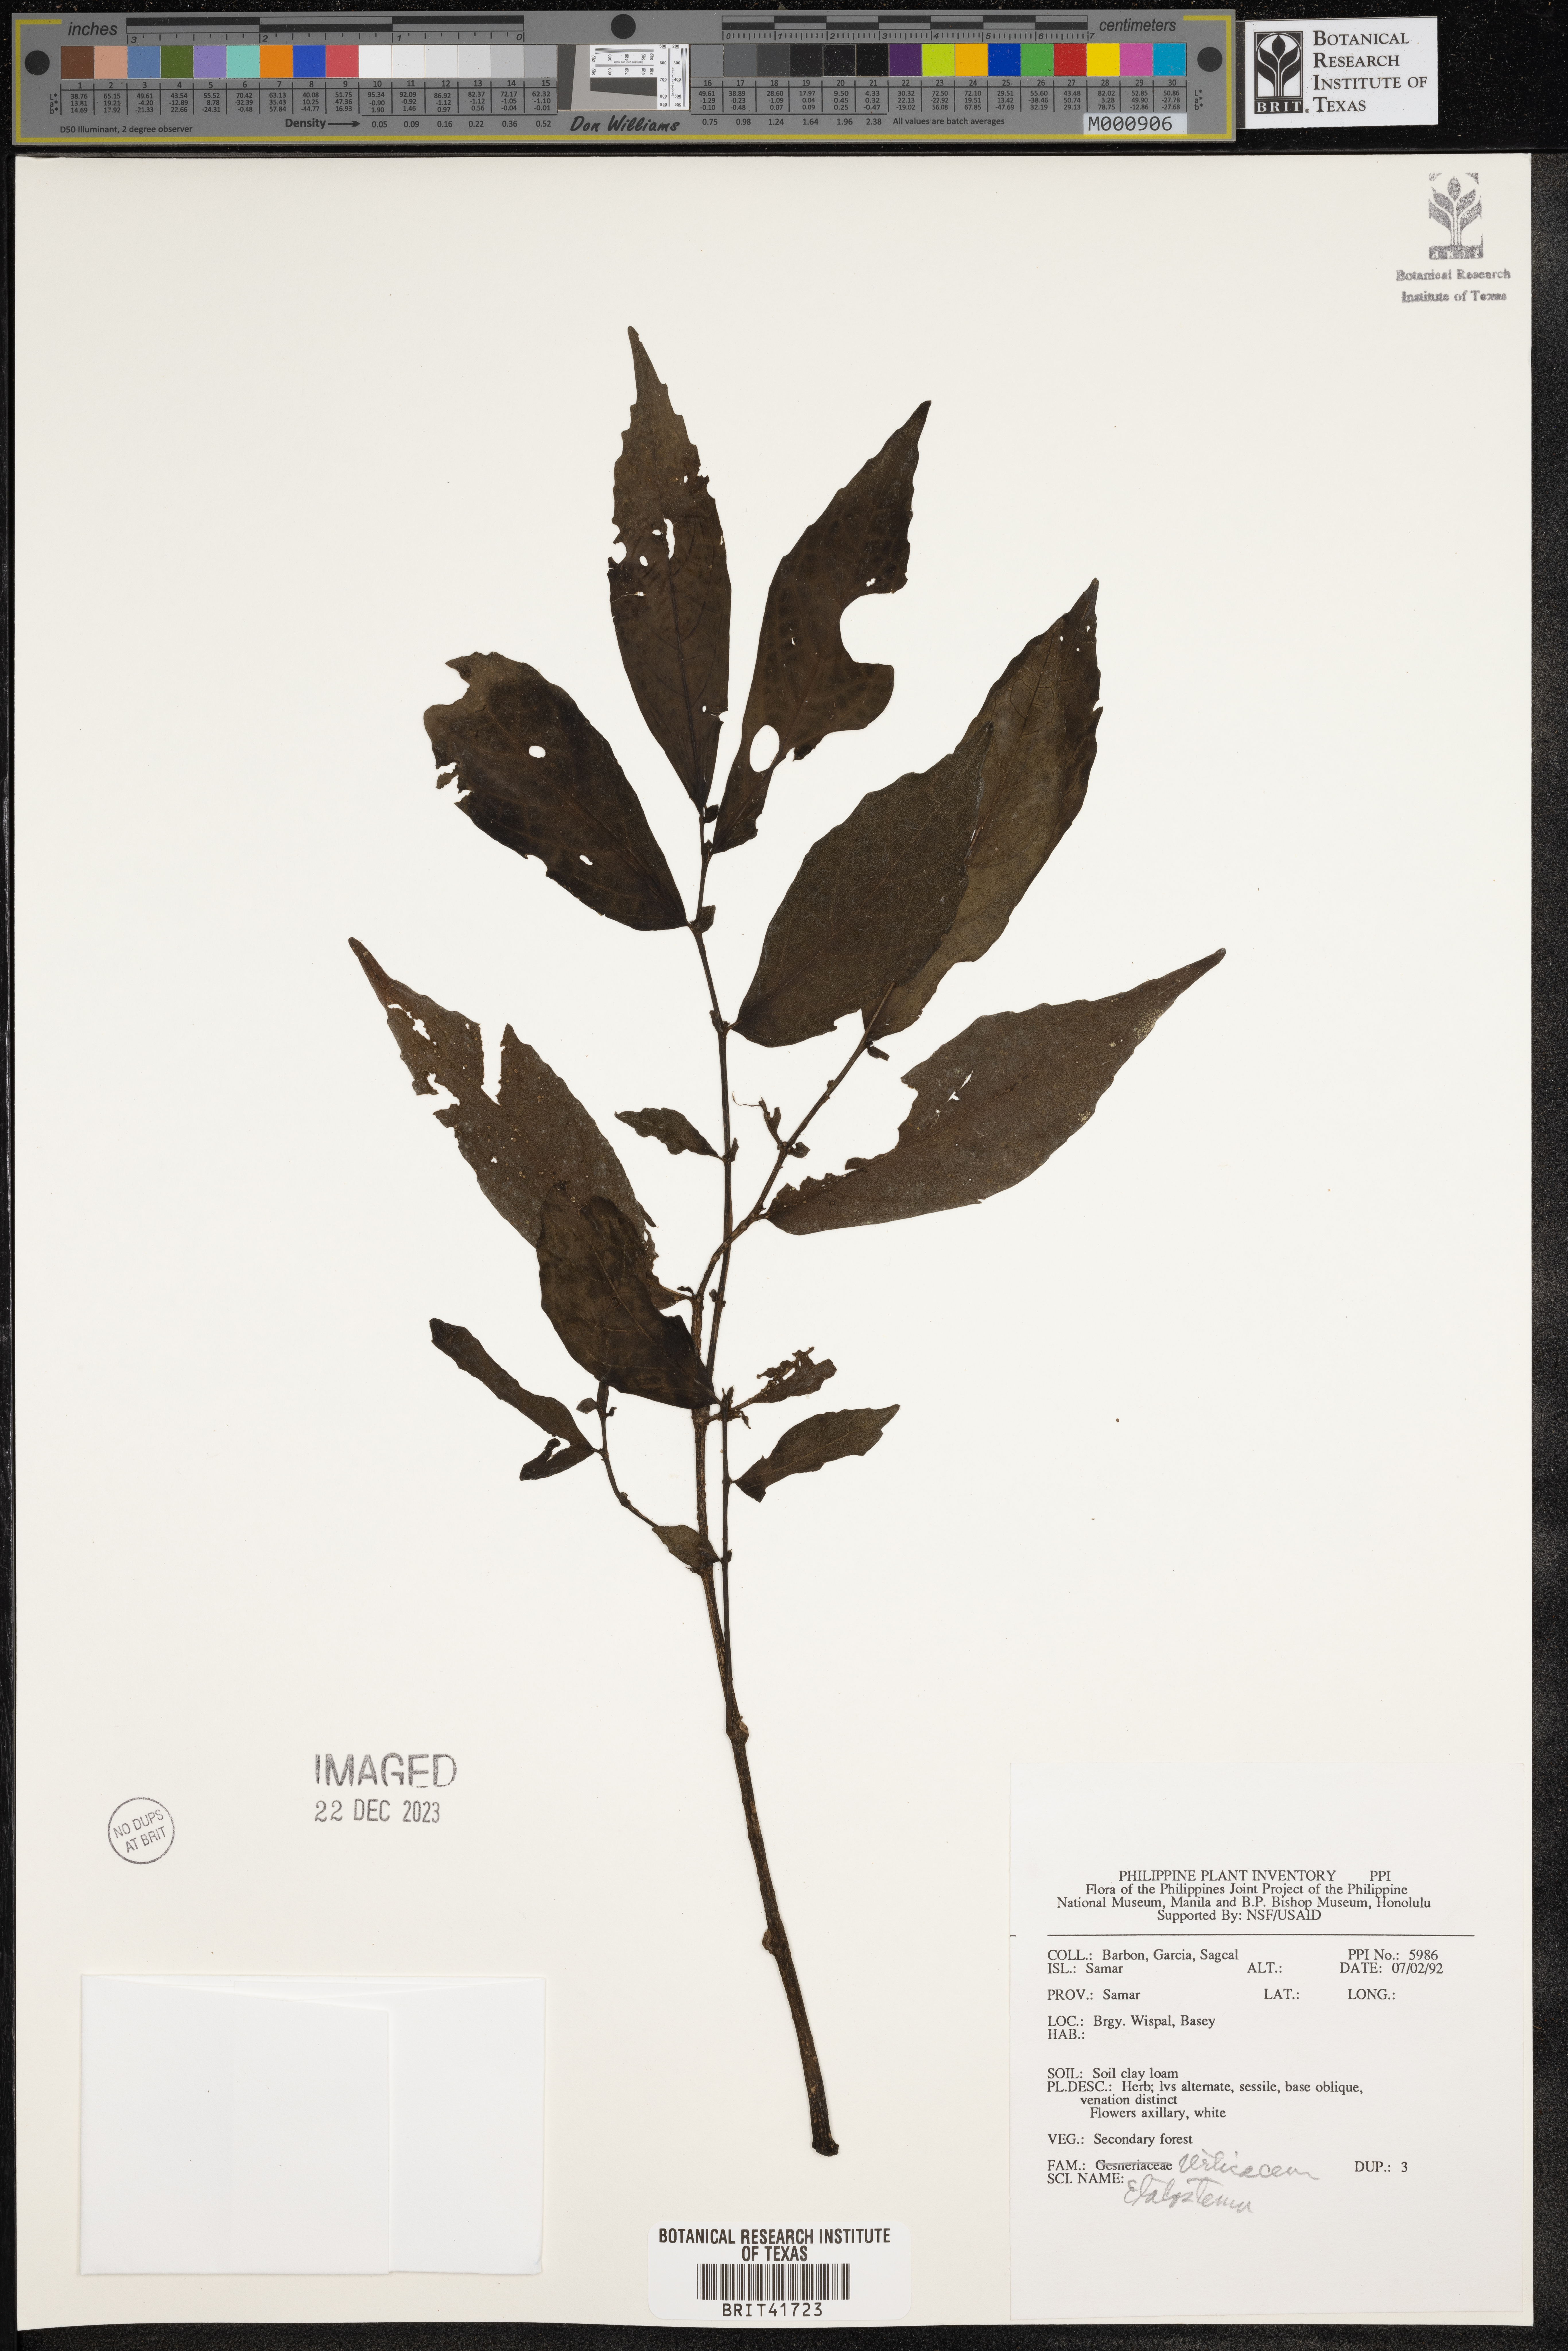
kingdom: Plantae
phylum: Tracheophyta
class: Magnoliopsida
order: Rosales
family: Urticaceae
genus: Elatostema
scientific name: Elatostema
